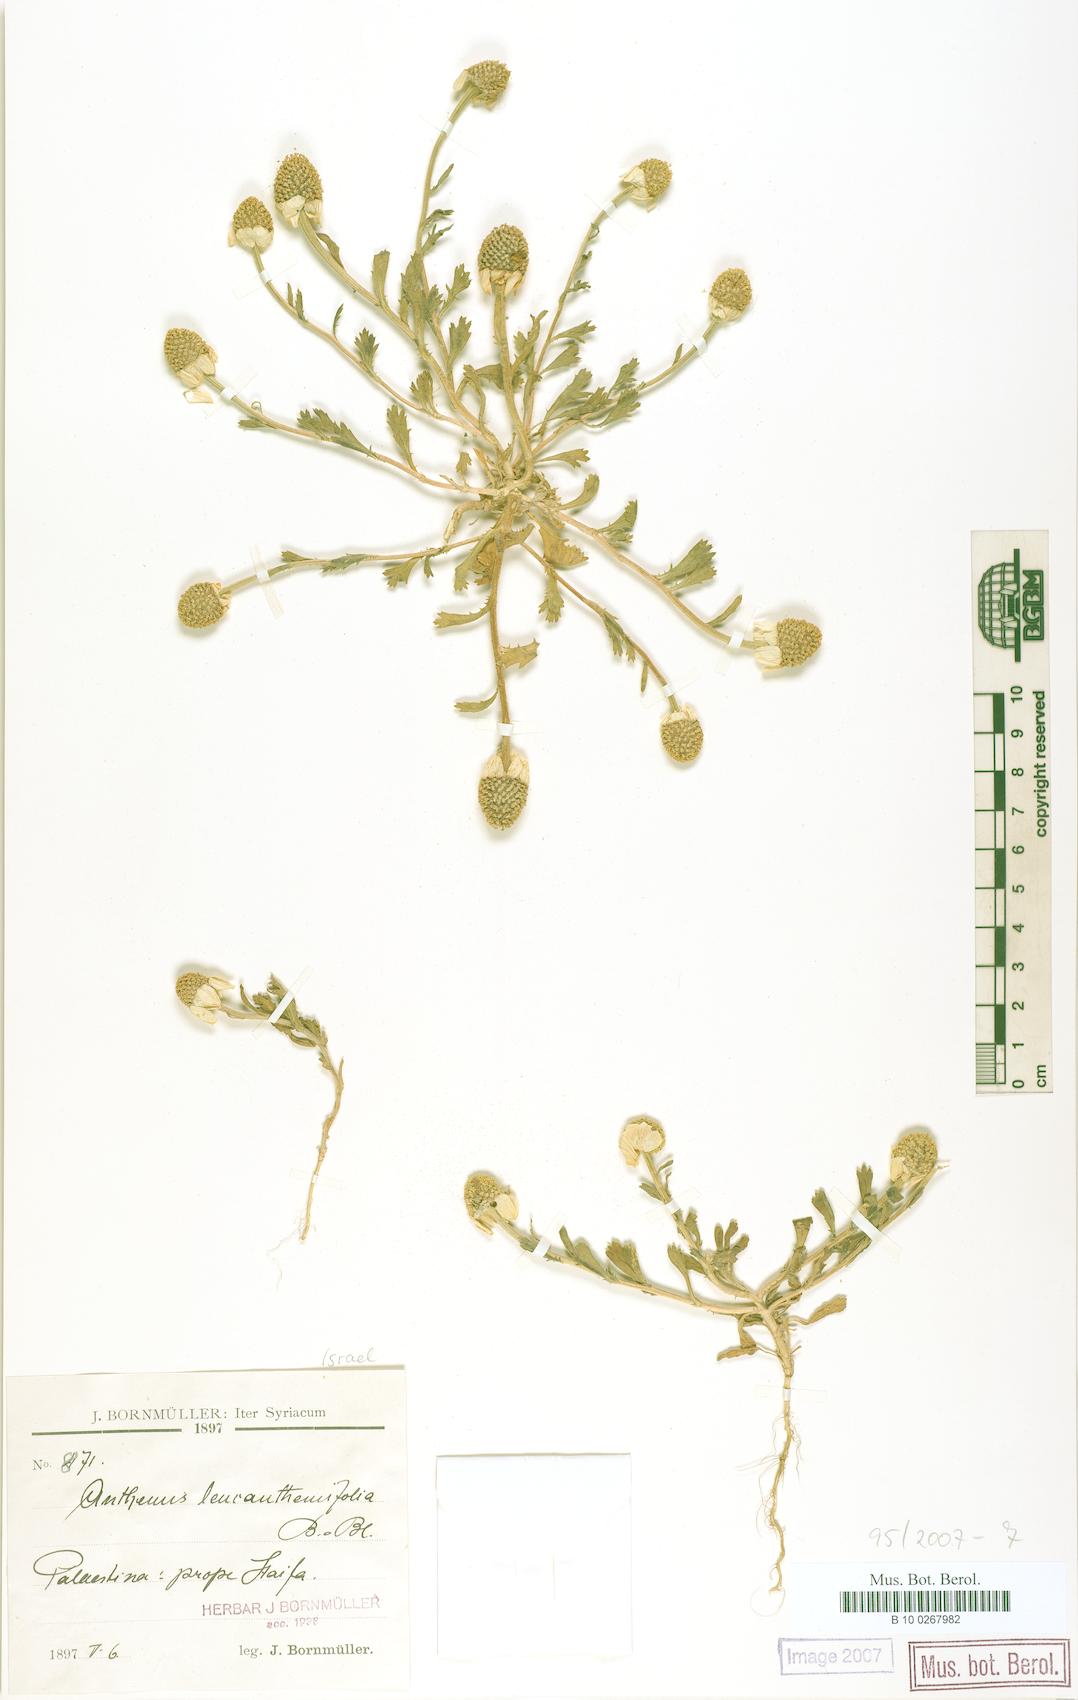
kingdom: Plantae
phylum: Tracheophyta
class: Magnoliopsida
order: Asterales
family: Asteraceae
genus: Anthemis
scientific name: Anthemis leucanthemifolia
